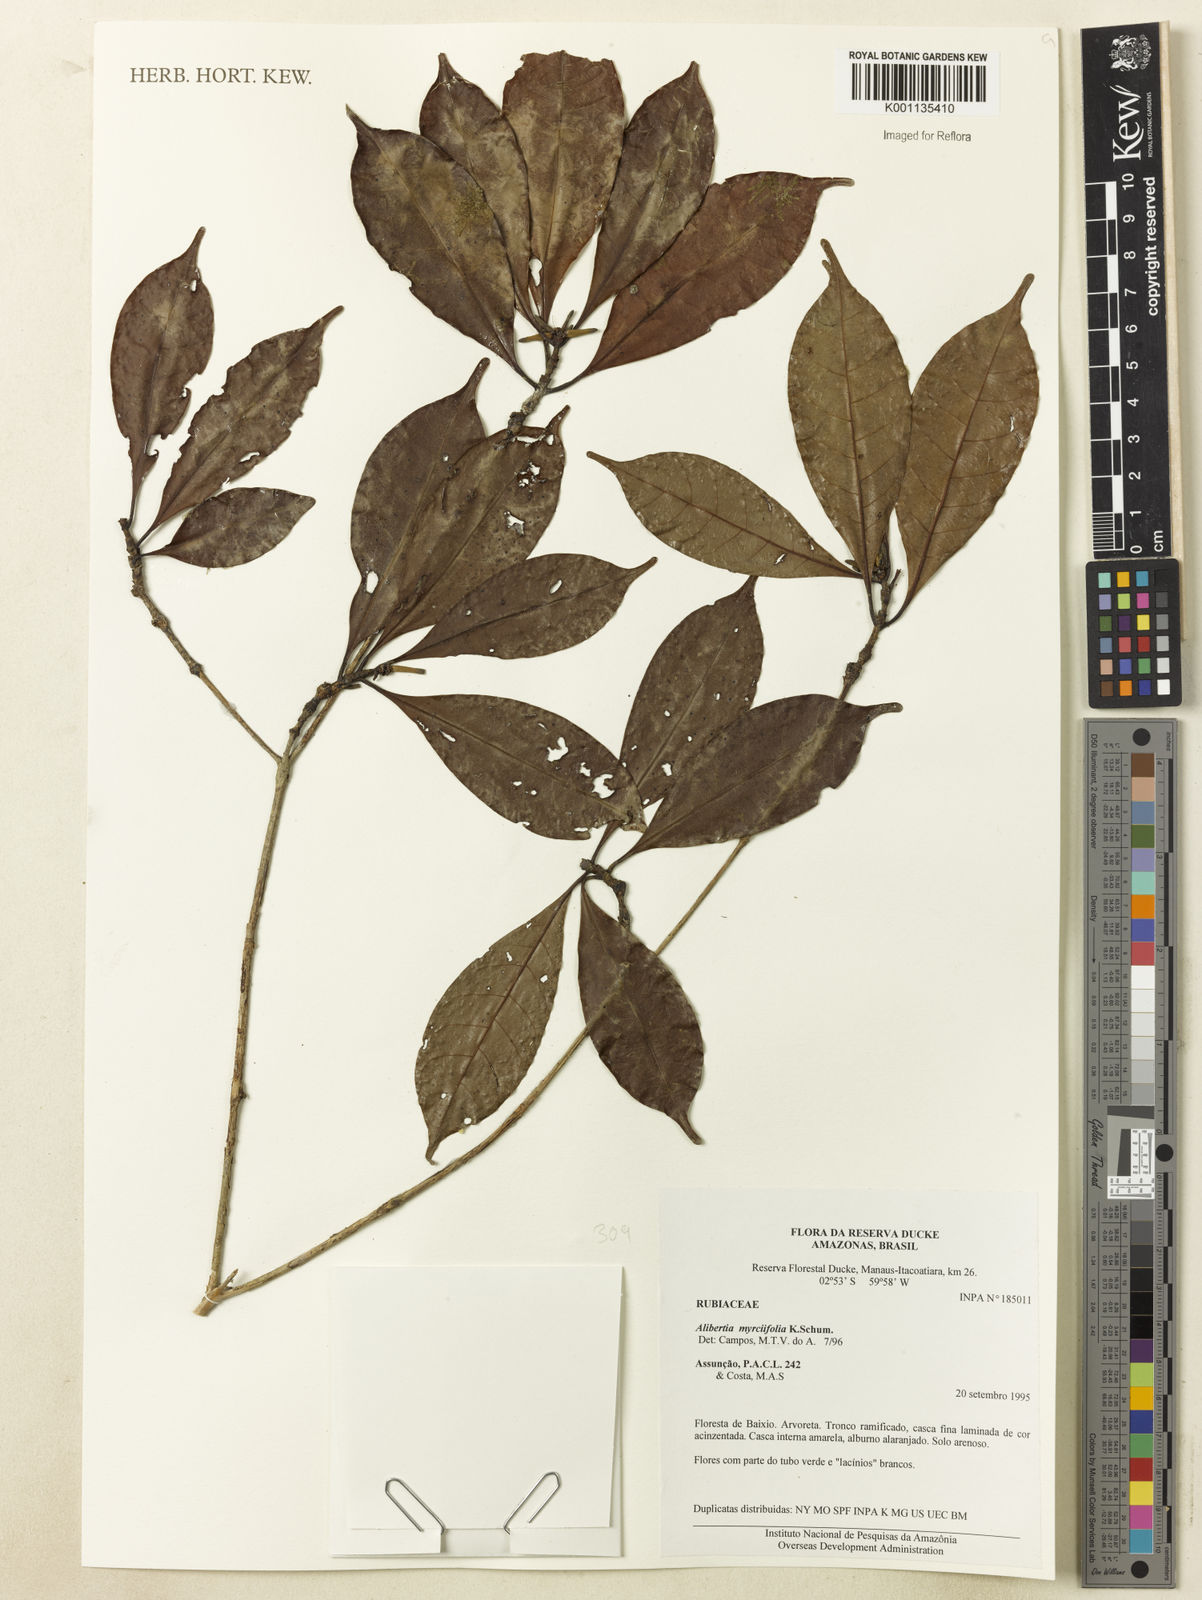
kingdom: Plantae
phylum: Tracheophyta
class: Magnoliopsida
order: Gentianales
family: Rubiaceae
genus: Cordiera
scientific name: Cordiera myrciifolia
